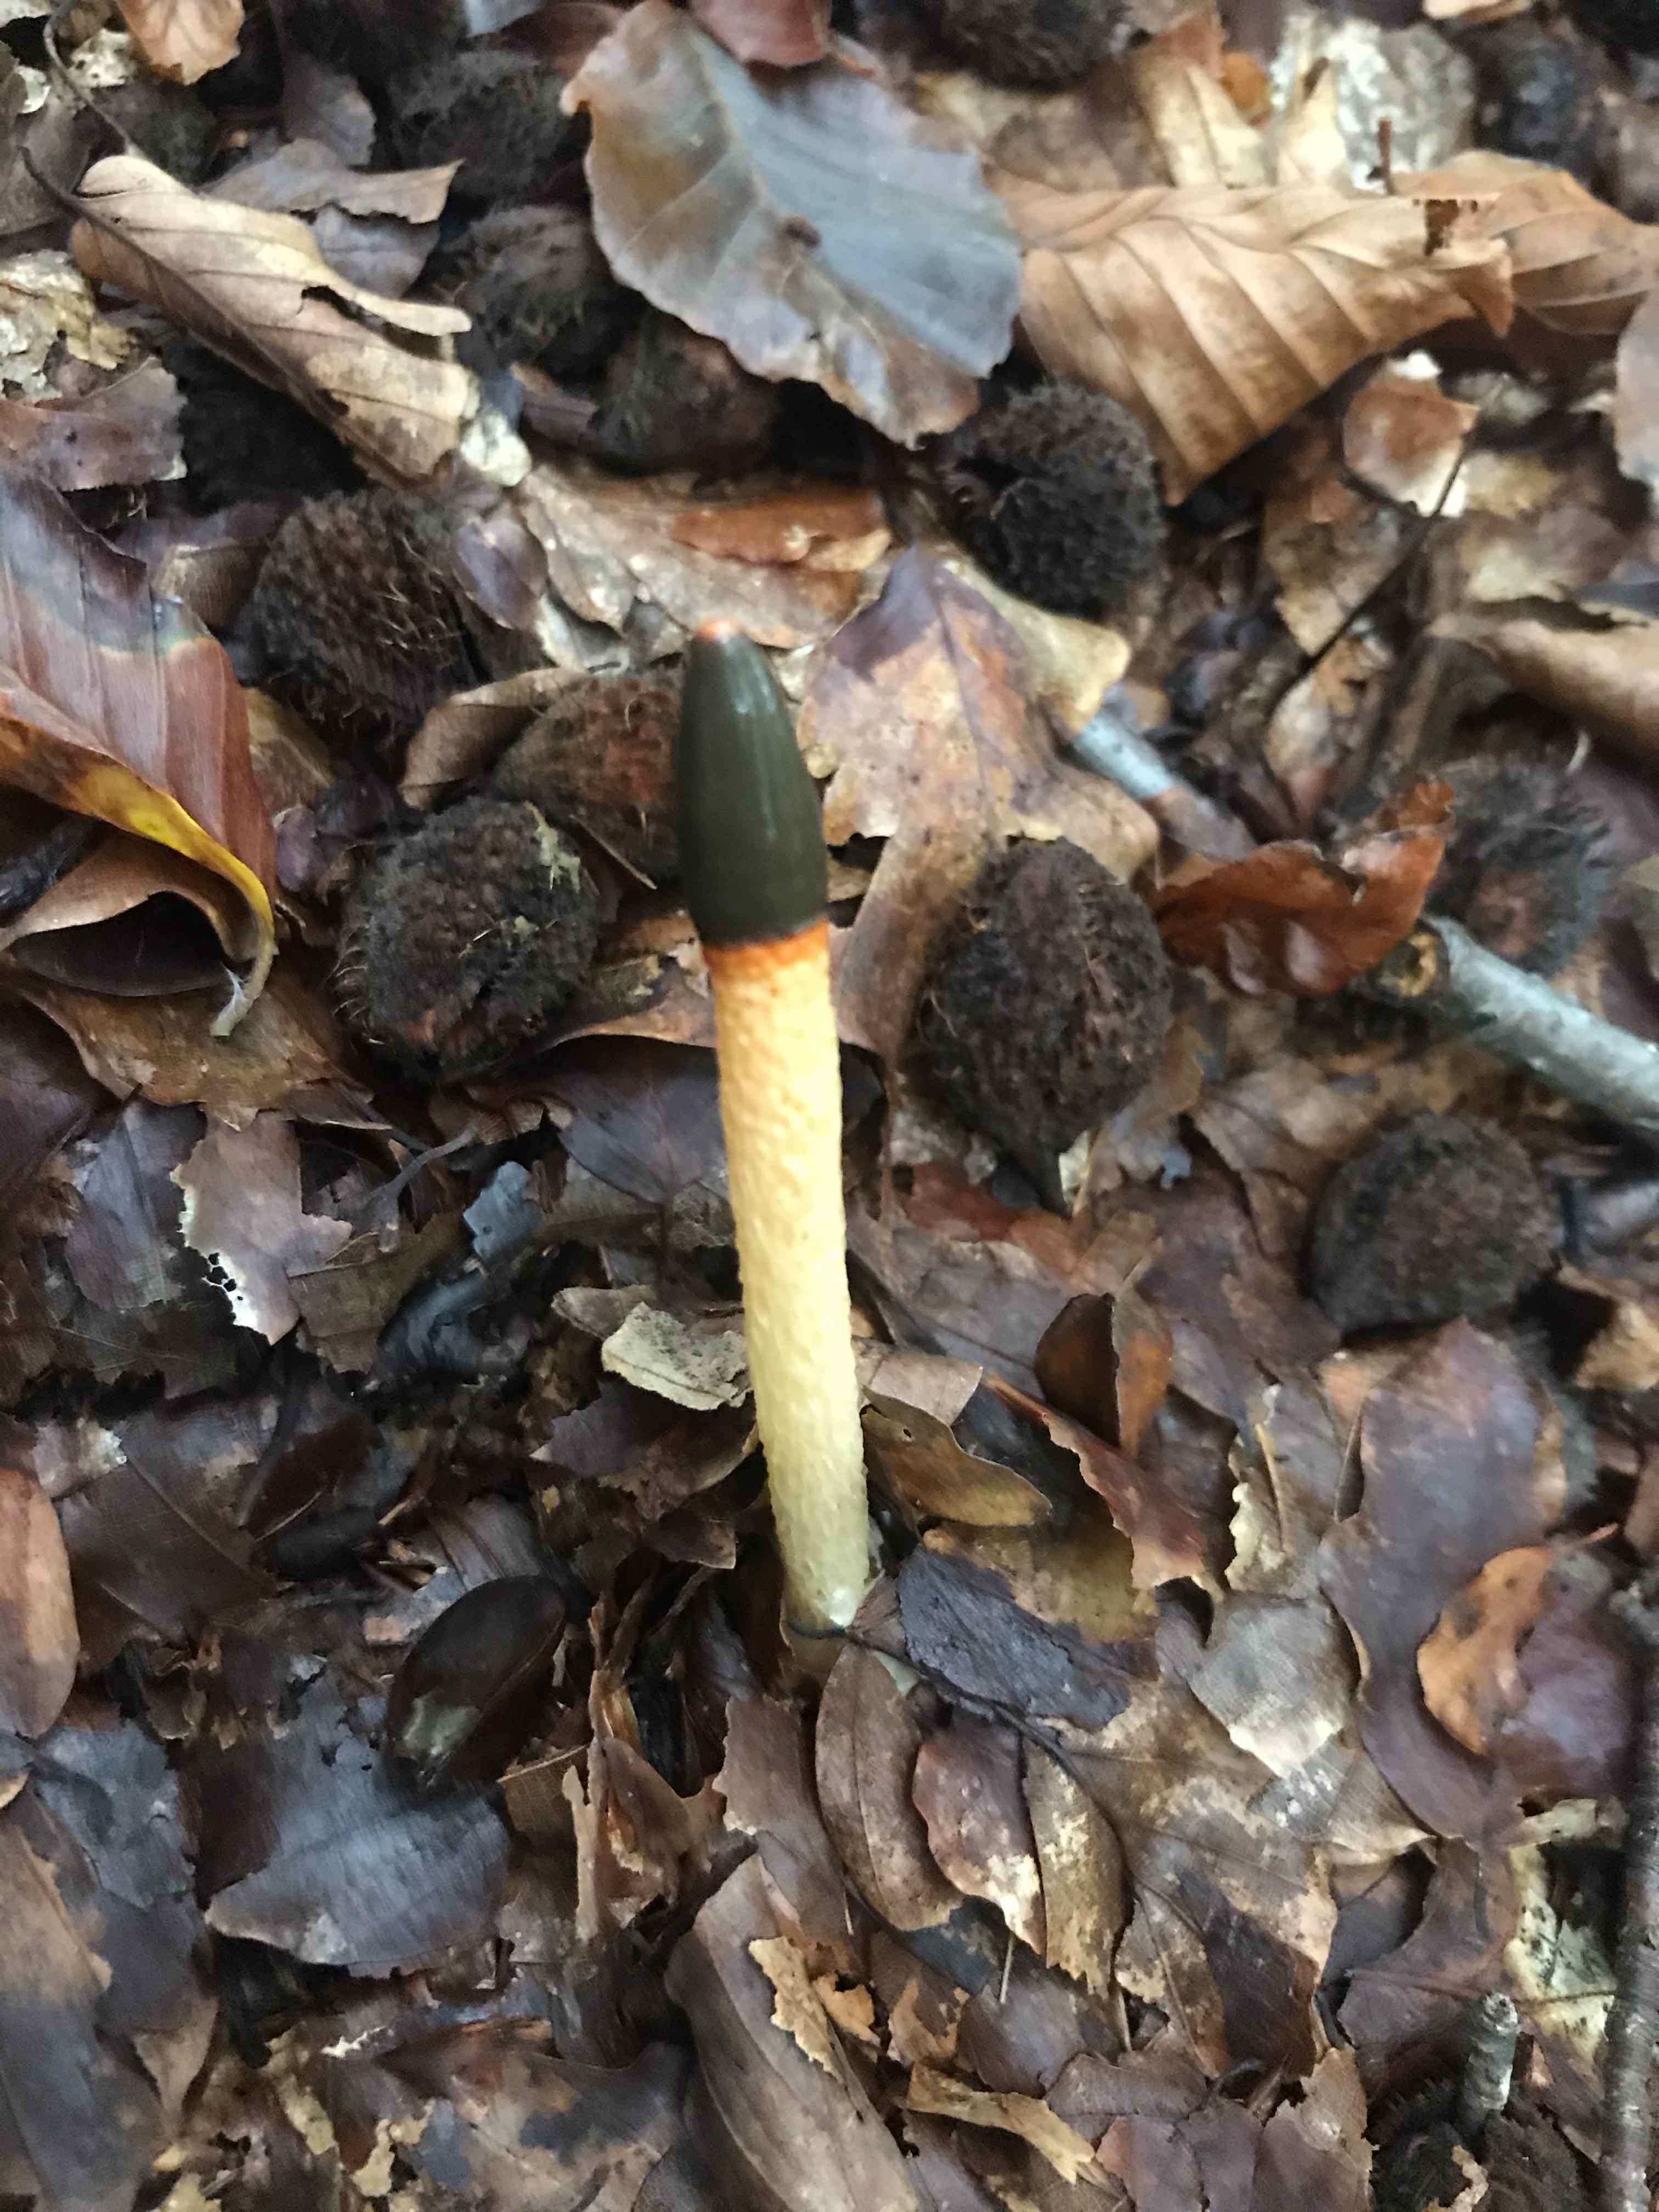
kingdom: Fungi
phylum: Basidiomycota
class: Agaricomycetes
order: Phallales
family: Phallaceae
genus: Mutinus
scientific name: Mutinus caninus
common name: hunde-stinksvamp
